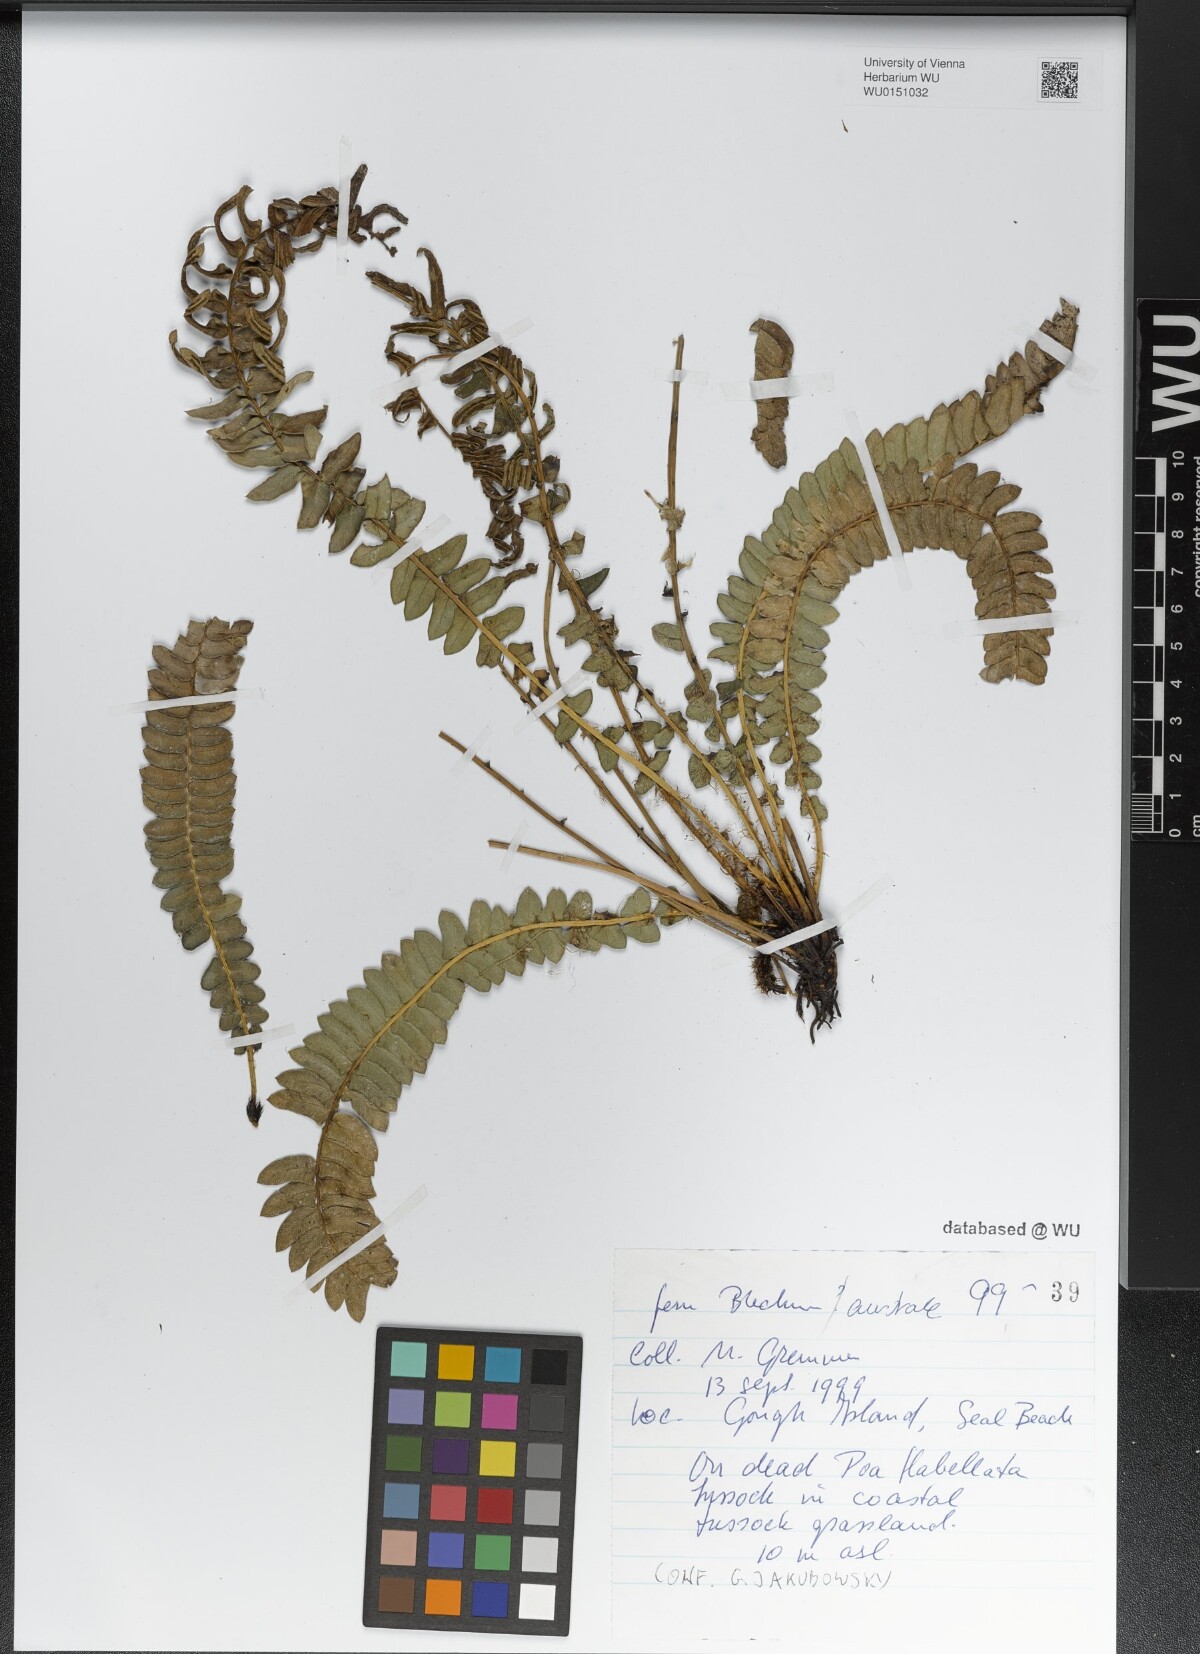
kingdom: Plantae
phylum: Tracheophyta
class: Polypodiopsida
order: Polypodiales
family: Blechnaceae
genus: Blechnum
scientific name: Blechnum australe
